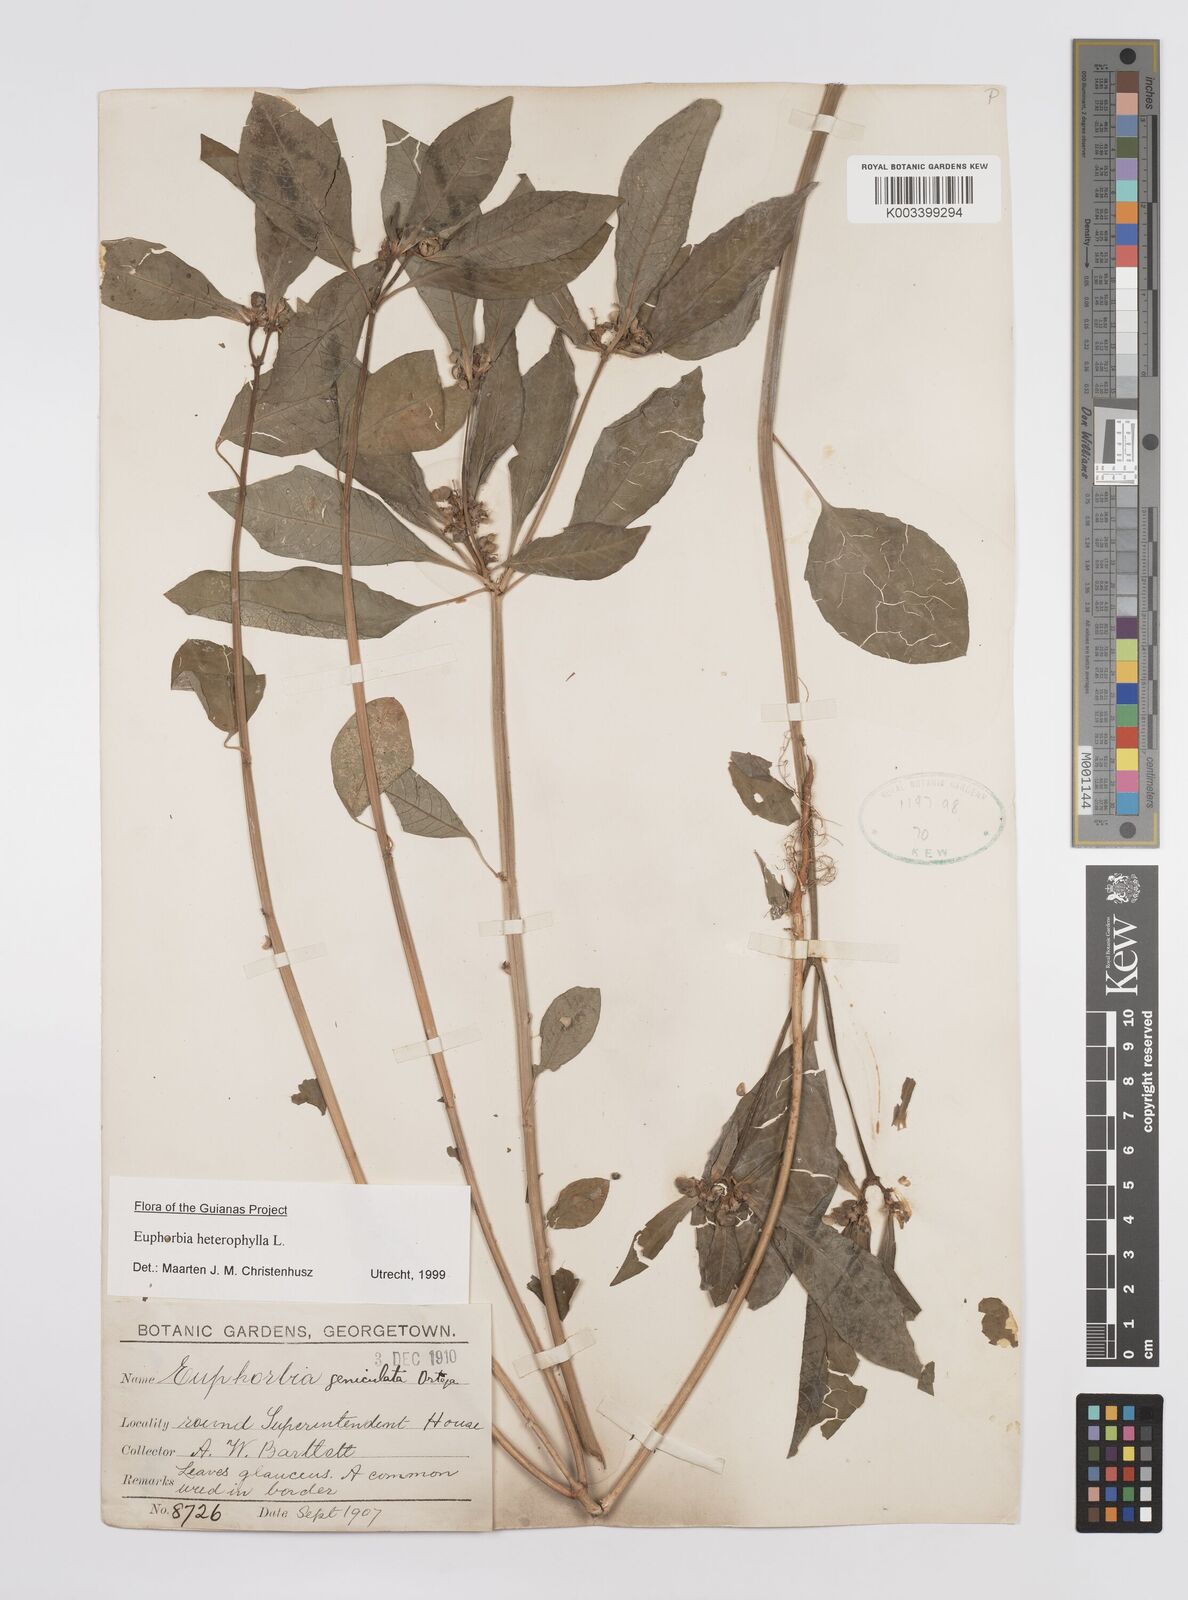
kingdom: Plantae
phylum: Tracheophyta
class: Magnoliopsida
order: Malpighiales
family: Euphorbiaceae
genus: Euphorbia
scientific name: Euphorbia heterophylla
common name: Mexican fireplant
